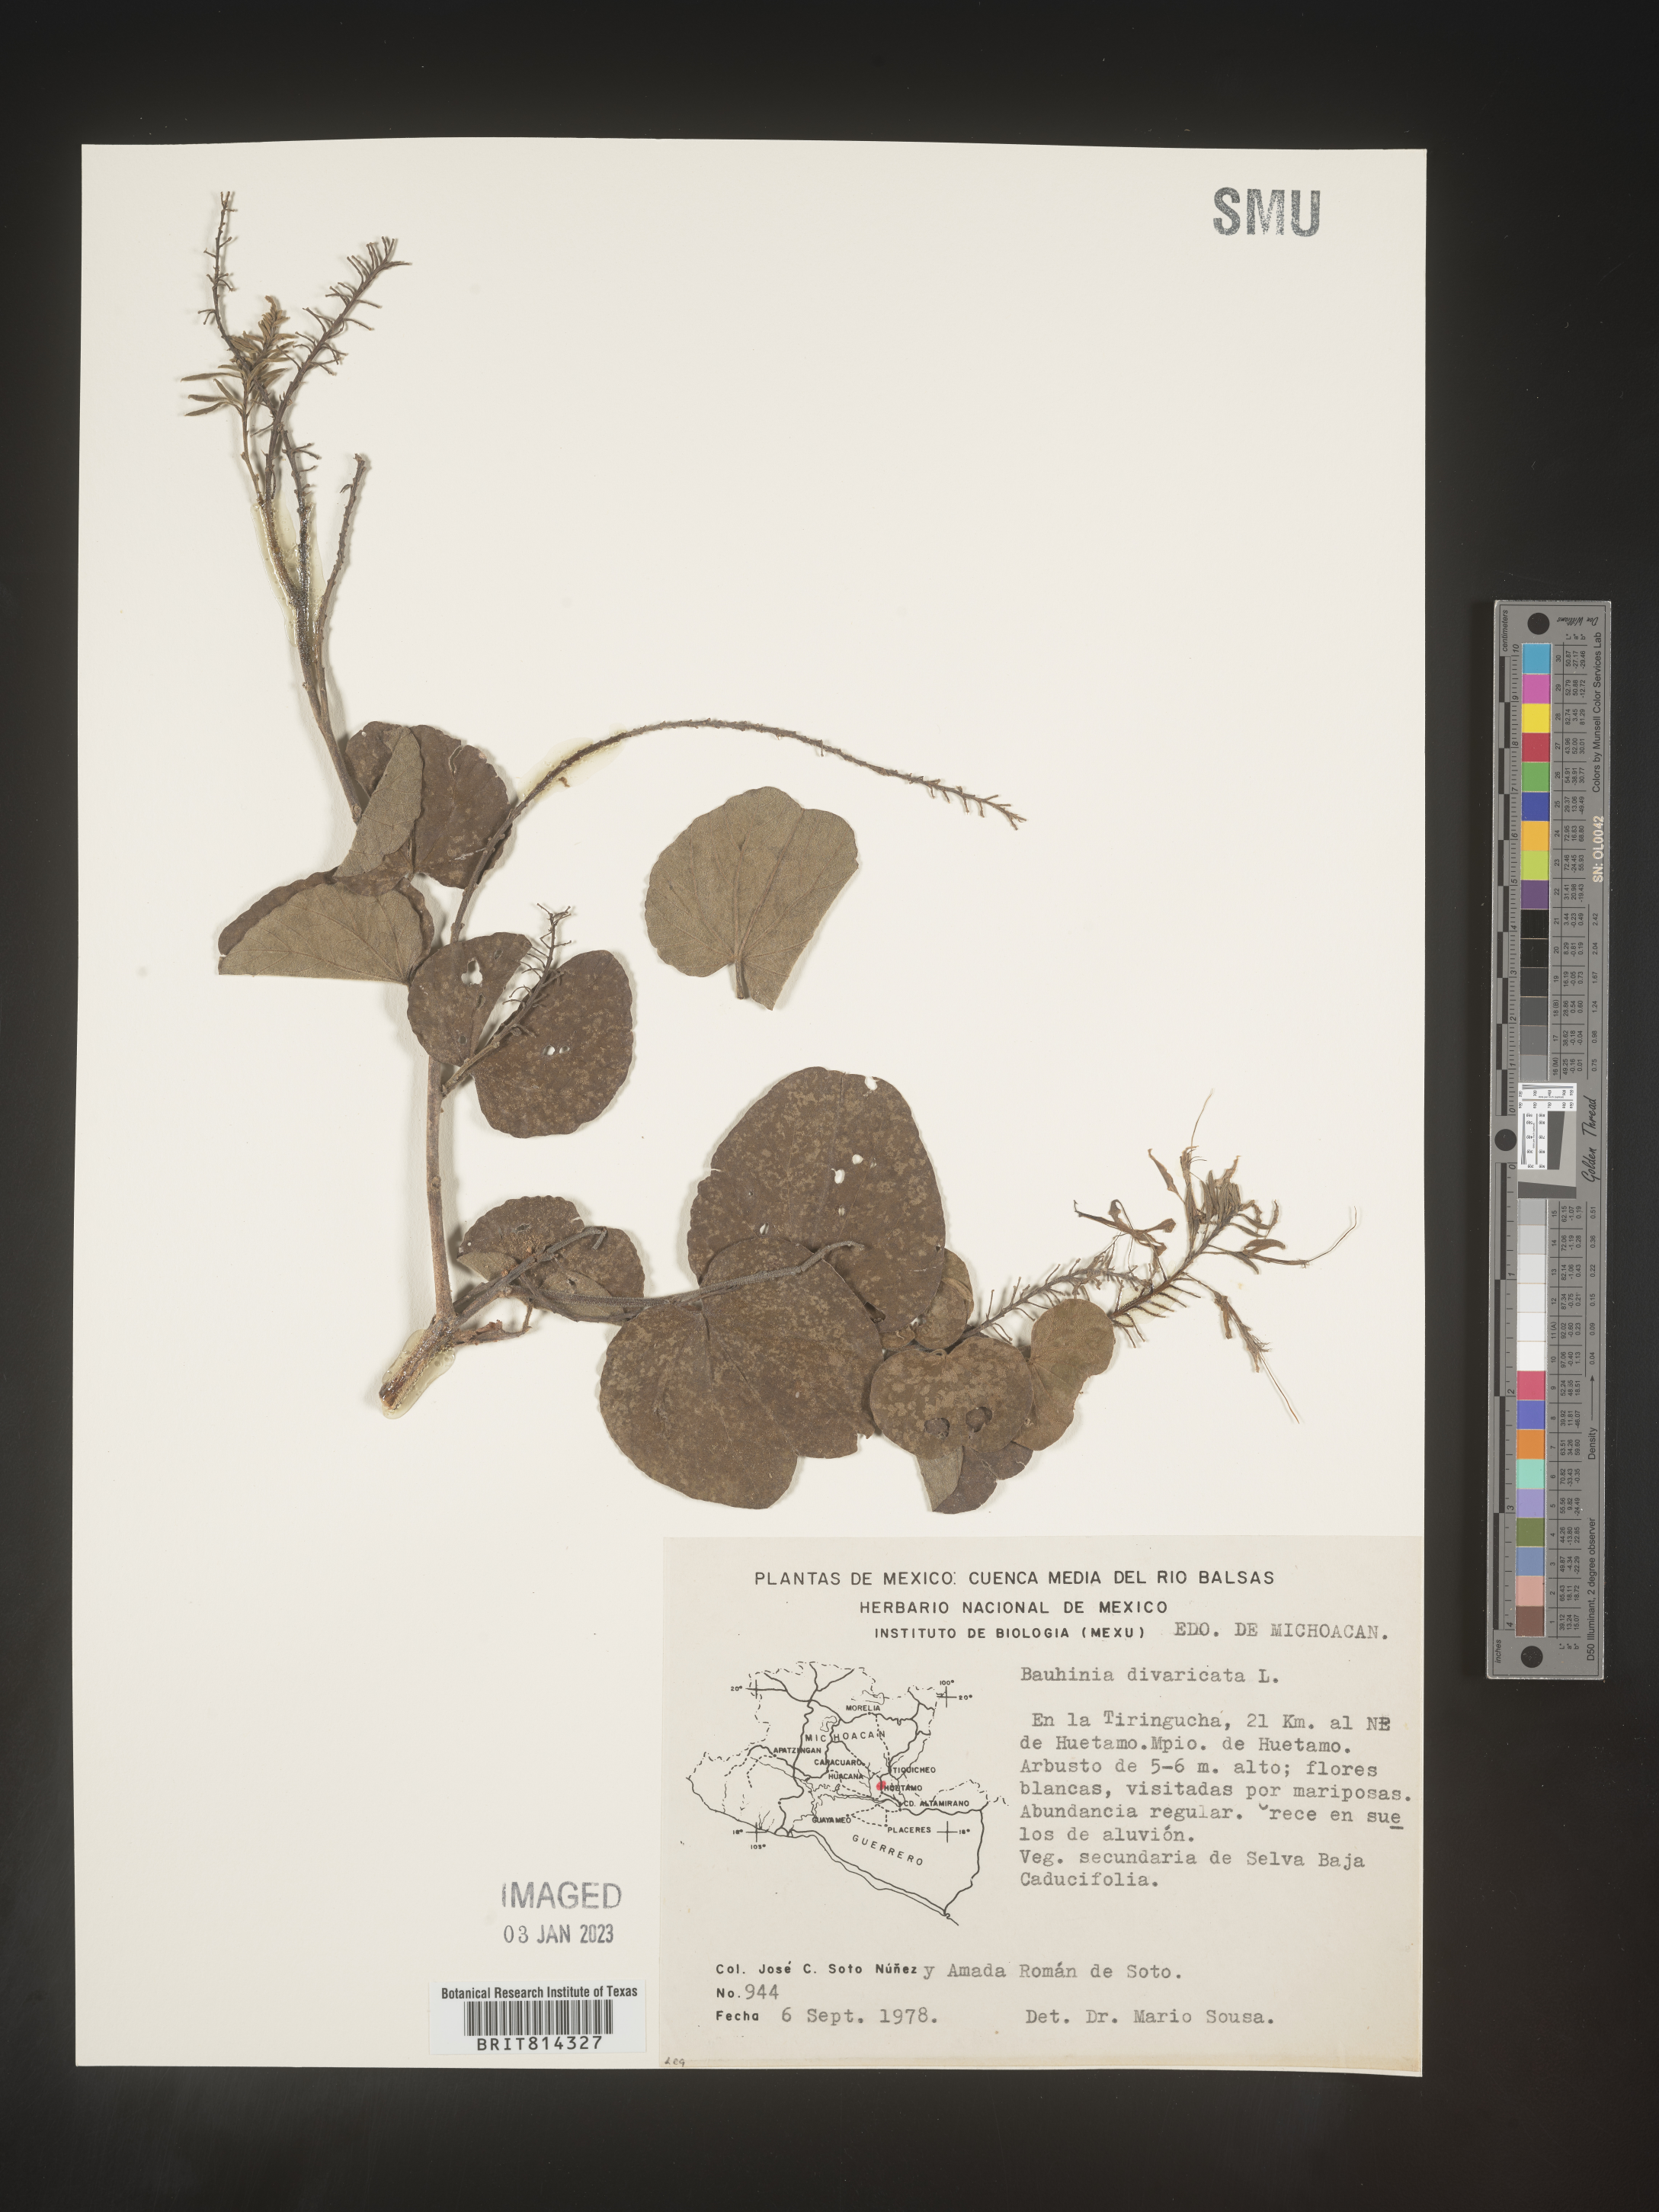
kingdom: Plantae
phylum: Tracheophyta
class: Magnoliopsida
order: Fabales
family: Fabaceae
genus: Bauhinia
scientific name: Bauhinia
